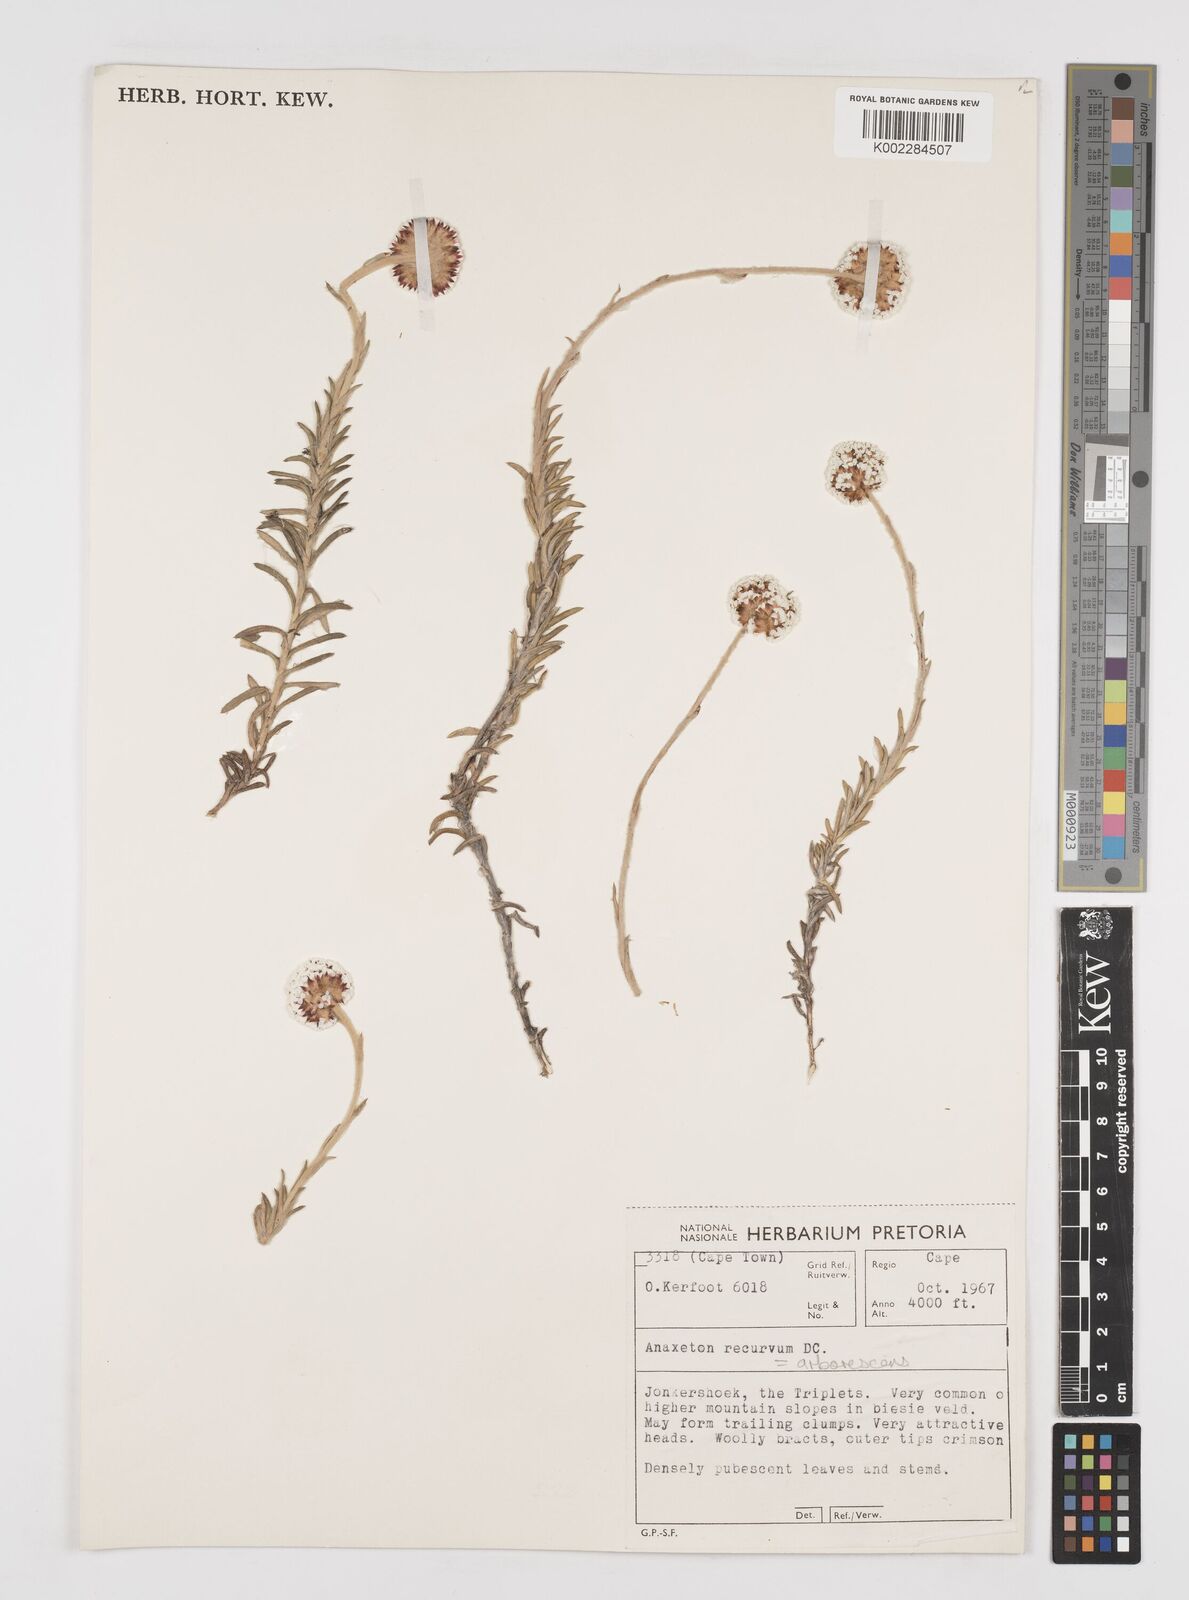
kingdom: Plantae
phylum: Tracheophyta
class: Magnoliopsida
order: Asterales
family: Asteraceae
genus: Anaxeton
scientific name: Anaxeton arborescens
